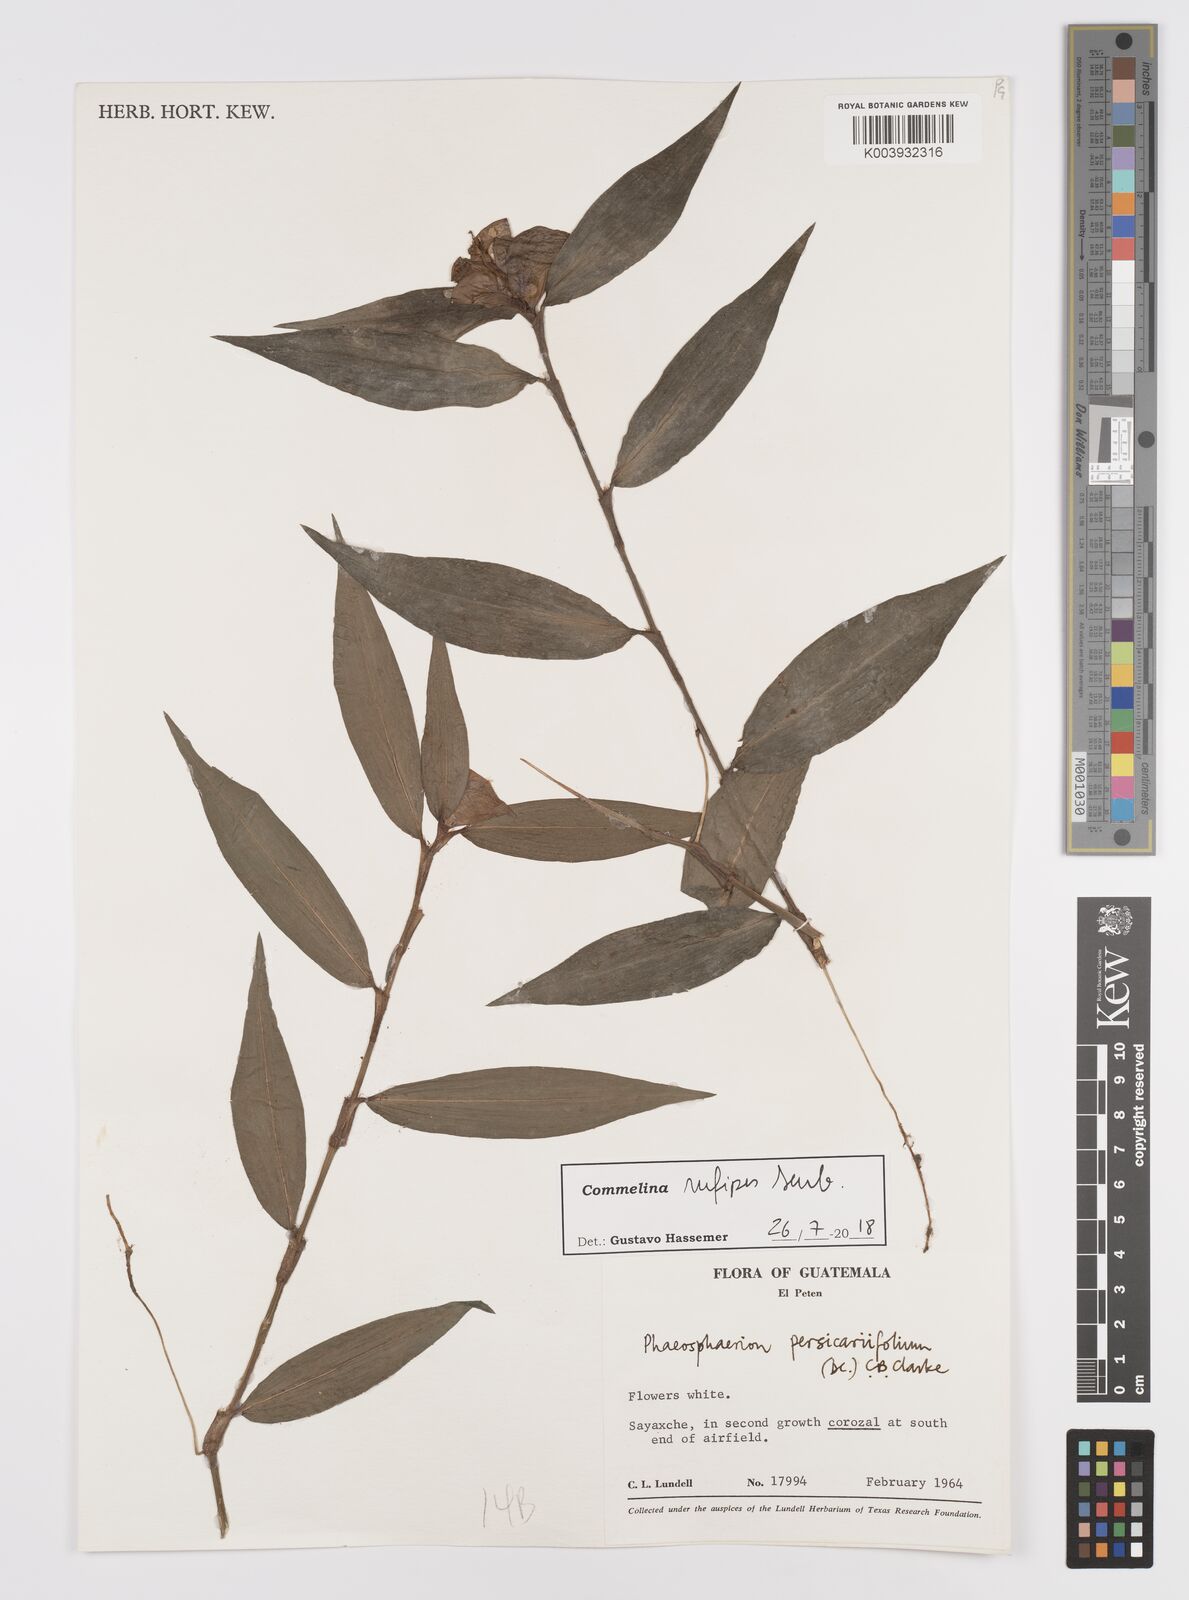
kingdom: Plantae
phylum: Tracheophyta
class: Liliopsida
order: Commelinales
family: Commelinaceae
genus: Commelina
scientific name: Commelina rufipes
